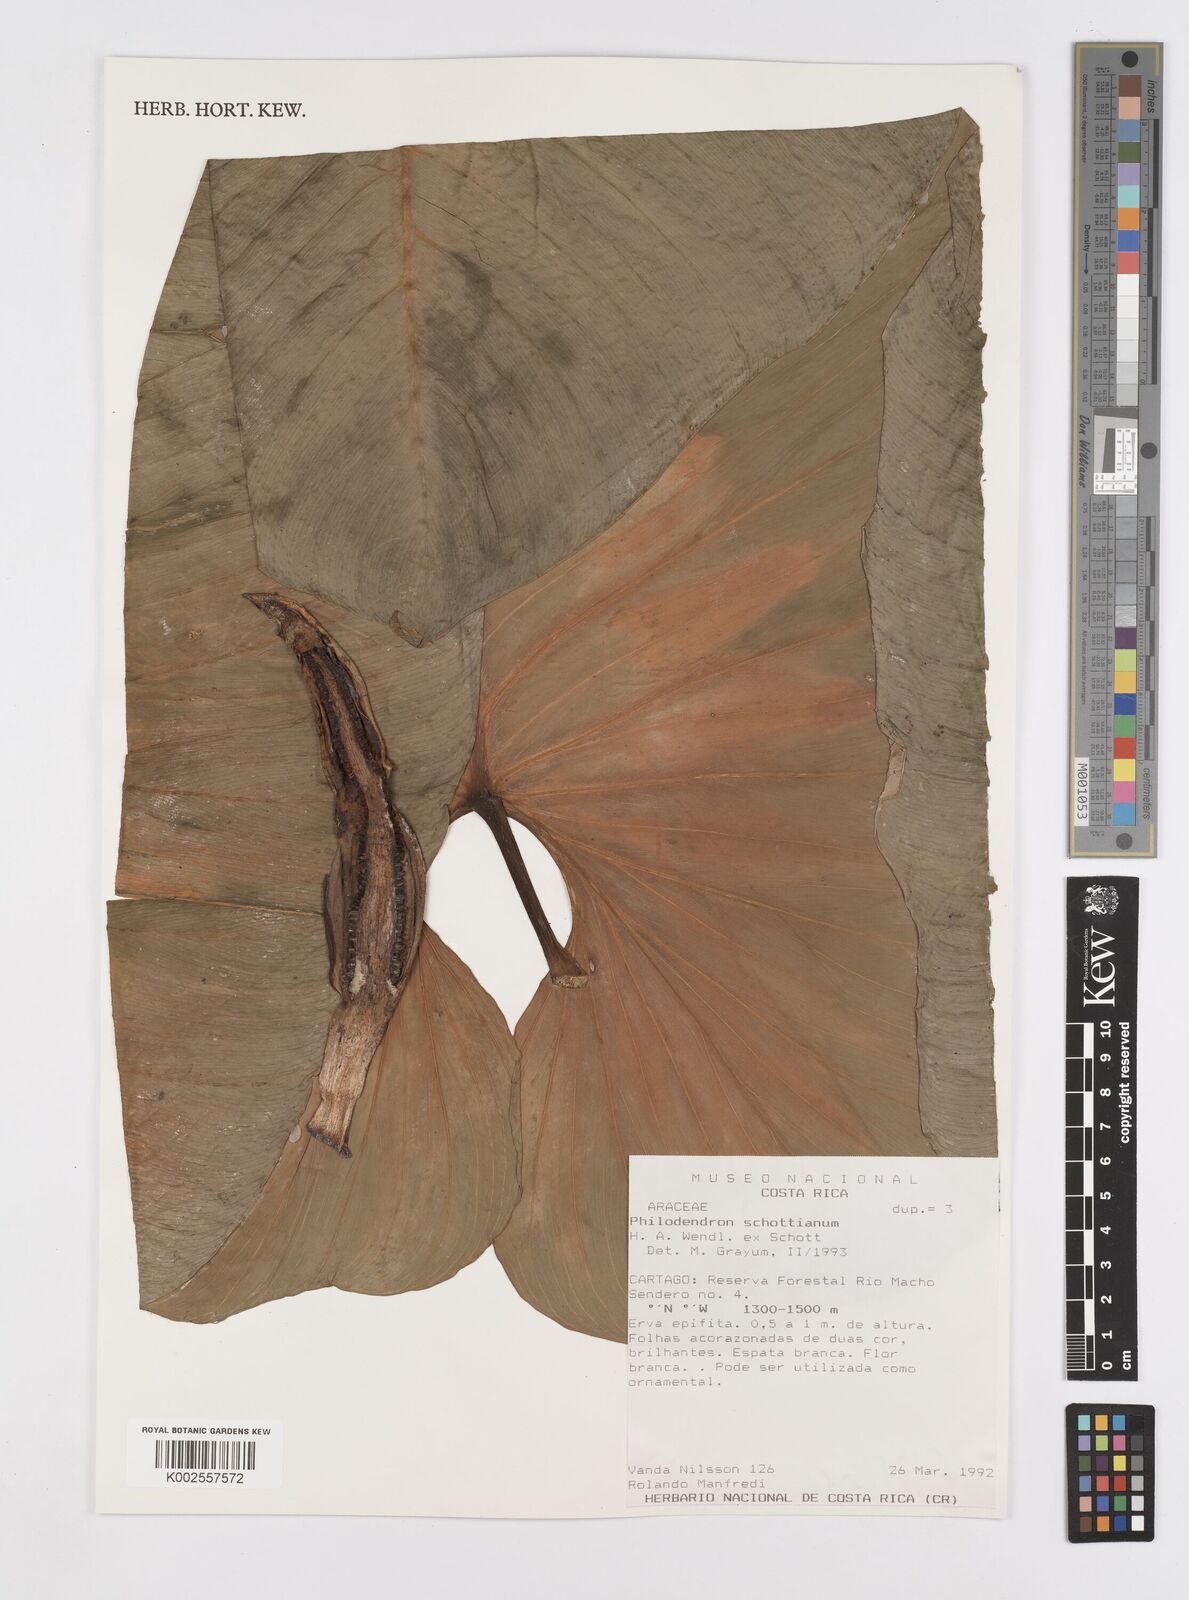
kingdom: Plantae
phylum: Tracheophyta
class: Liliopsida
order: Alismatales
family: Araceae
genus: Philodendron
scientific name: Philodendron schottianum
